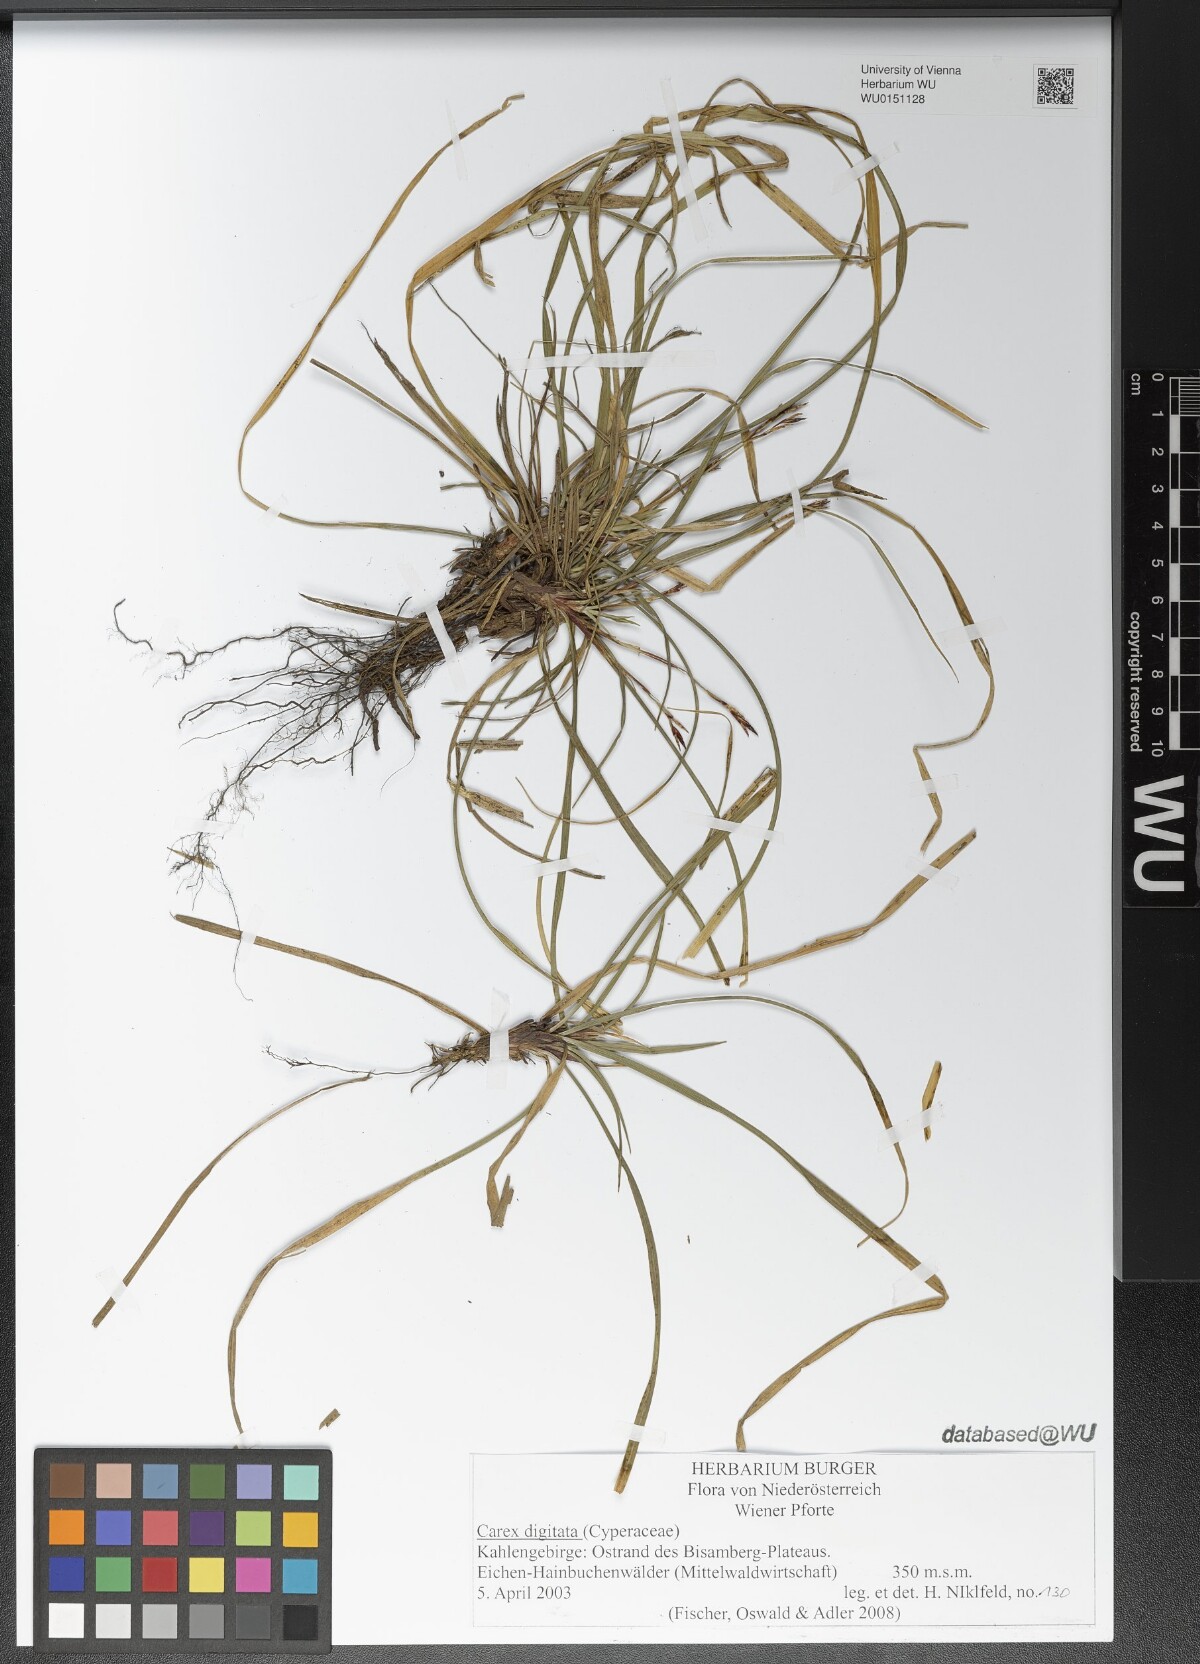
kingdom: Plantae
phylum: Tracheophyta
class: Liliopsida
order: Poales
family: Cyperaceae
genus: Carex
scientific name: Carex digitata
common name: Fingered sedge
